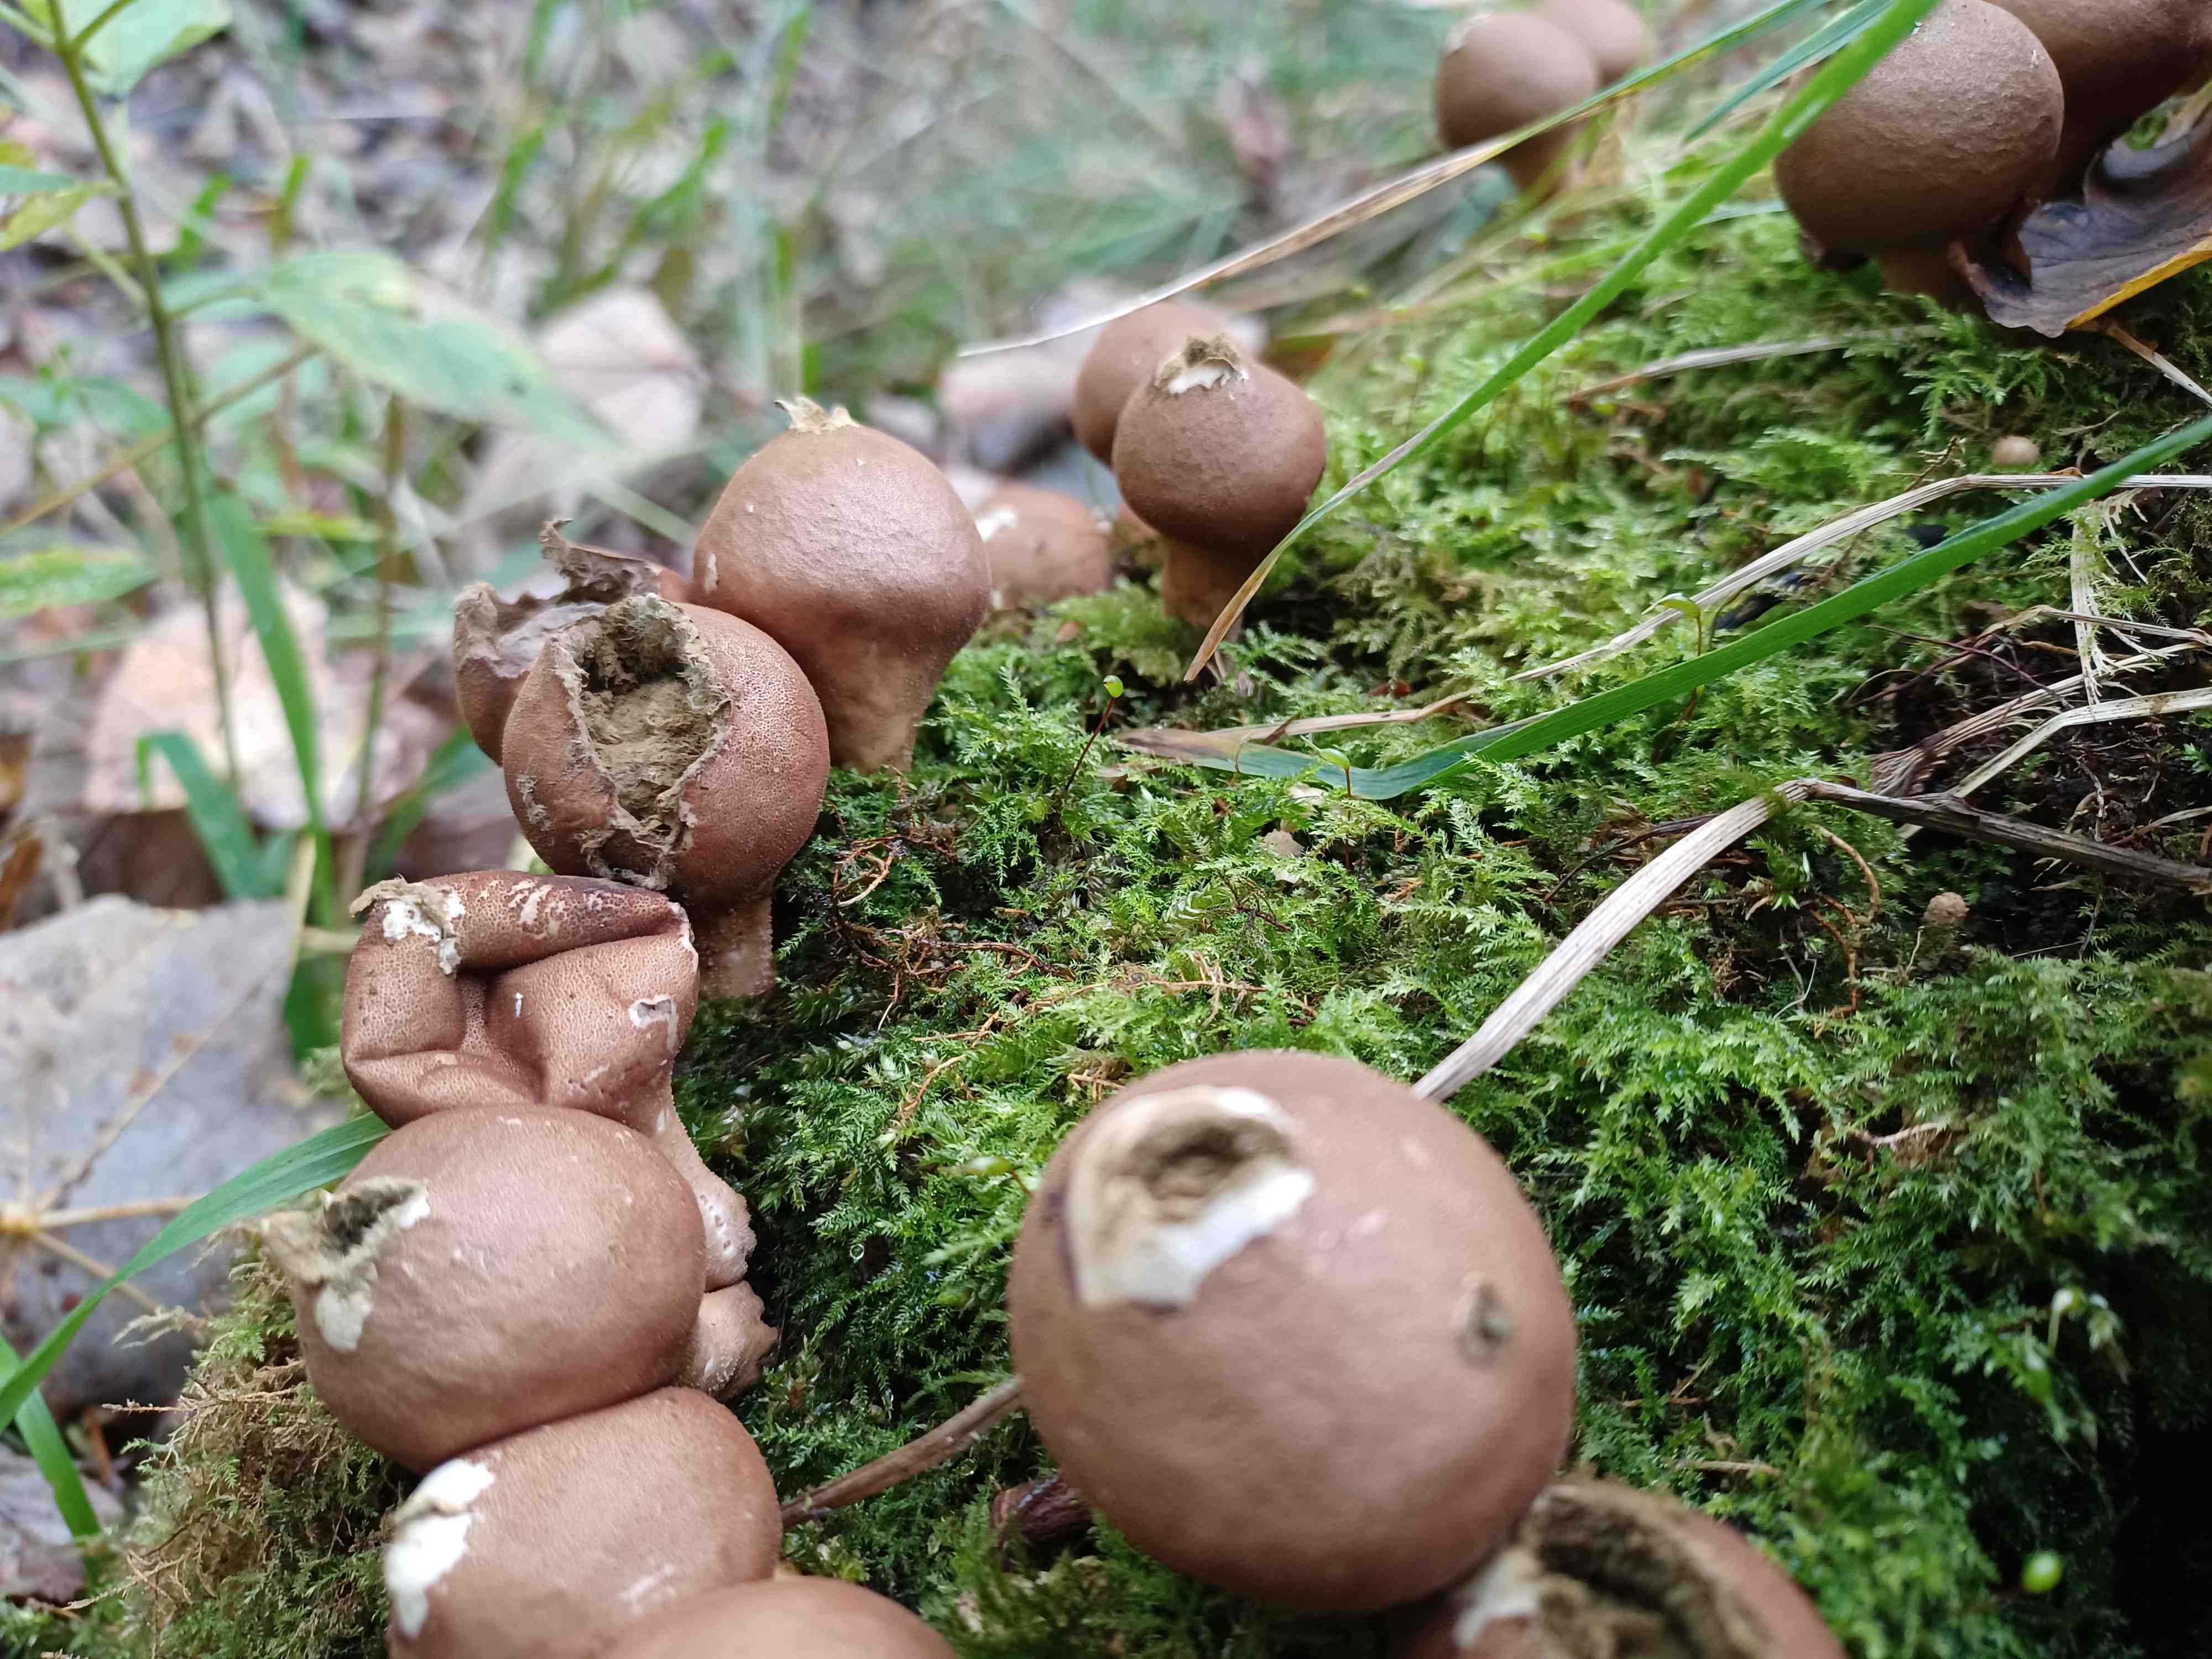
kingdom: Fungi
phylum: Basidiomycota
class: Agaricomycetes
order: Agaricales
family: Lycoperdaceae
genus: Apioperdon
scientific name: Apioperdon pyriforme
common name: pære-støvbold
